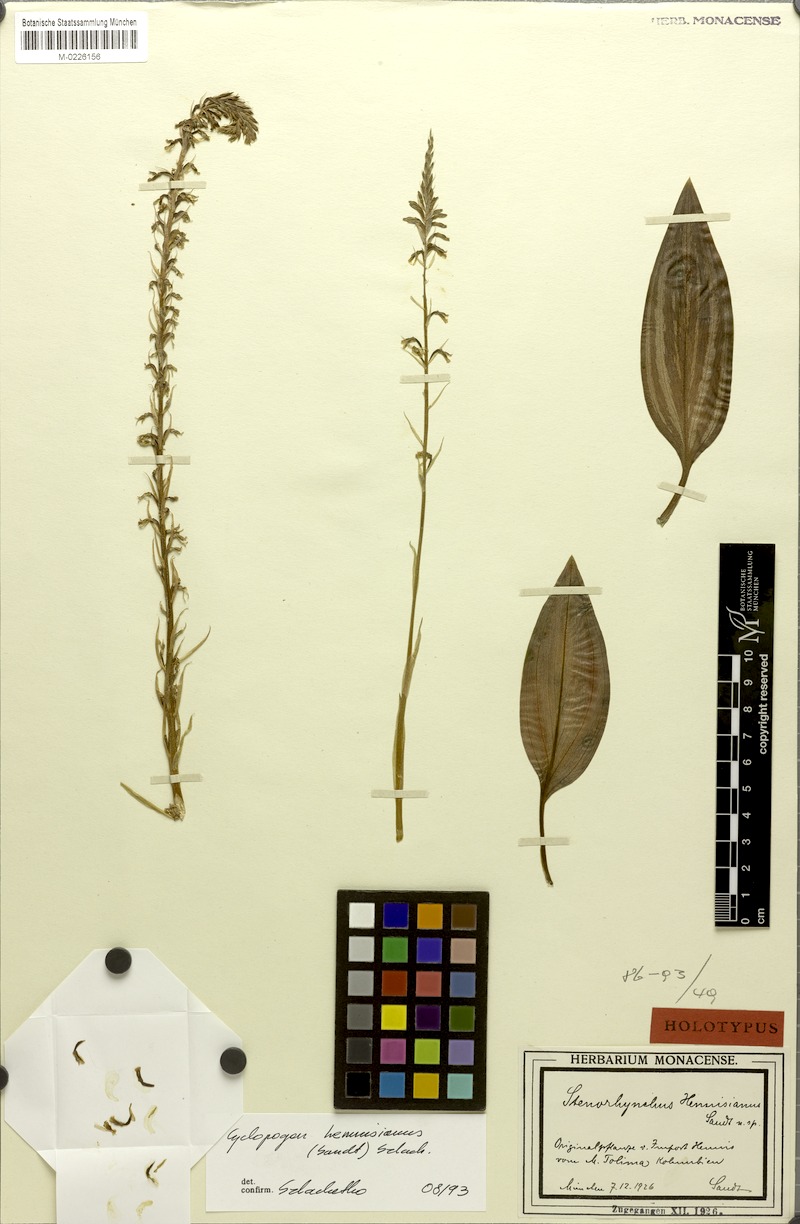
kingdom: Plantae
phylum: Tracheophyta
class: Liliopsida
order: Asparagales
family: Orchidaceae
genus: Cyclopogon
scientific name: Cyclopogon hennisianus
